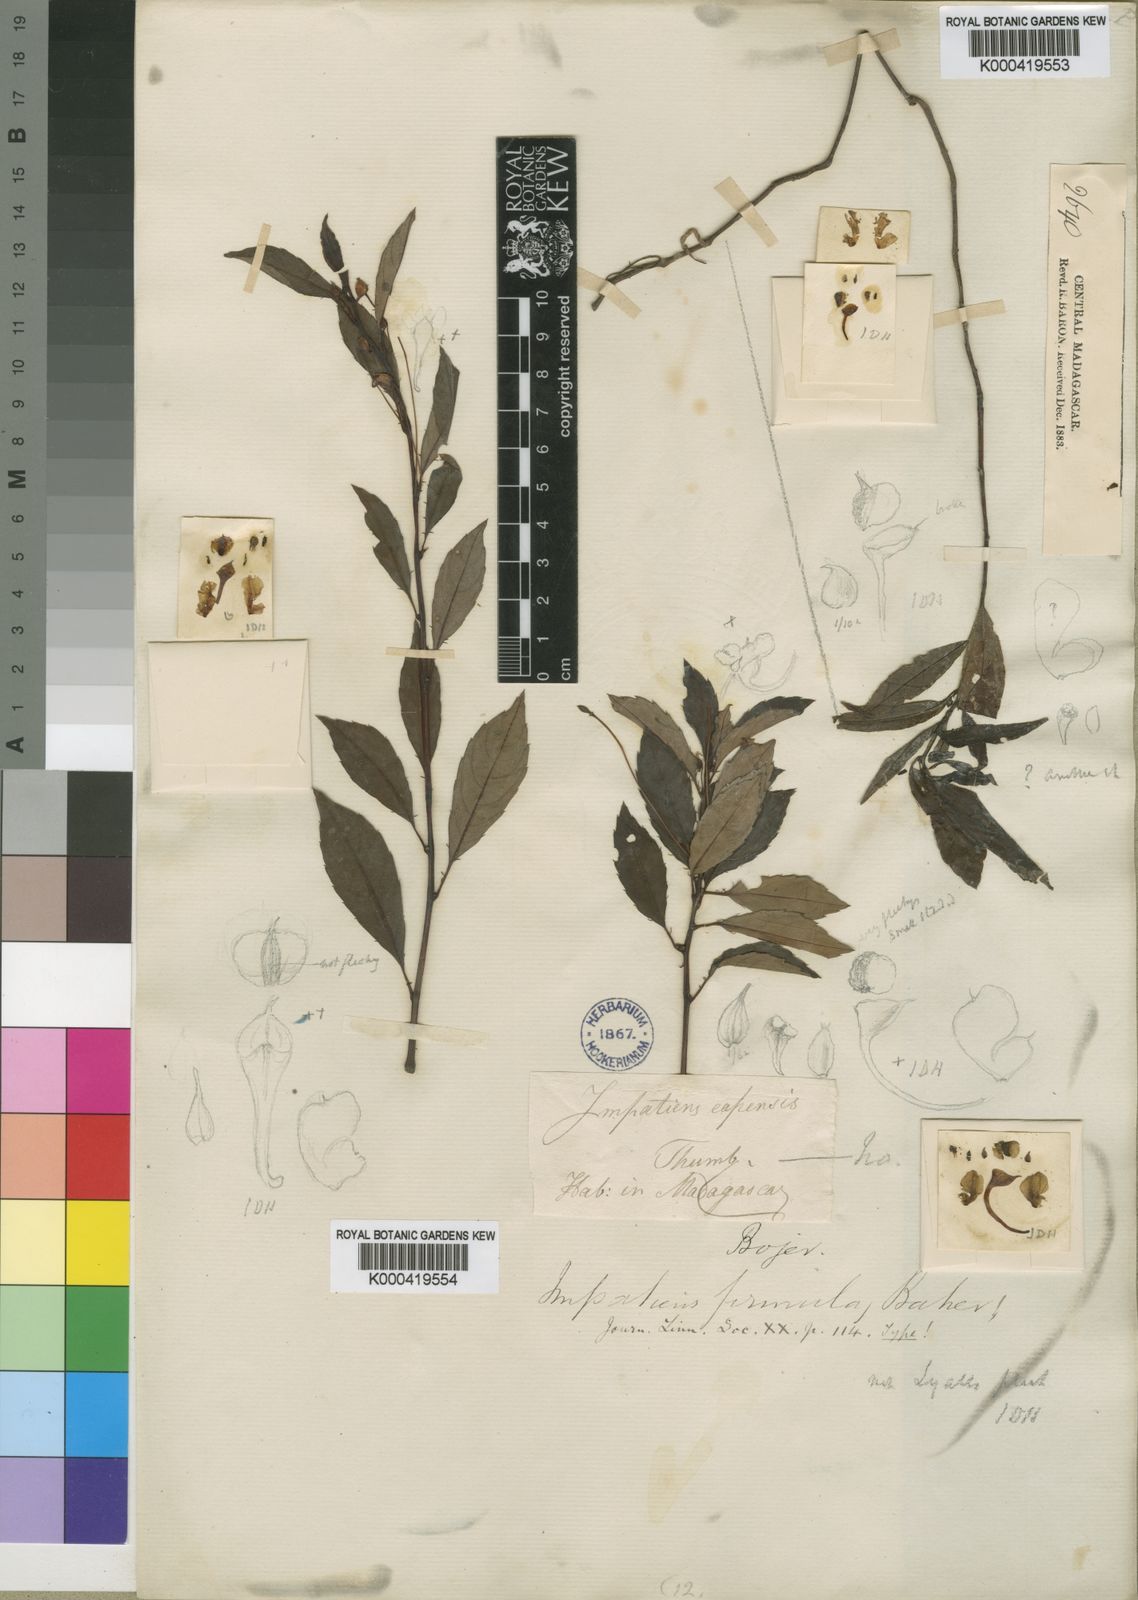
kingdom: Plantae
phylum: Tracheophyta
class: Magnoliopsida
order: Ericales
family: Balsaminaceae
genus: Impatiens
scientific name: Impatiens firmula
